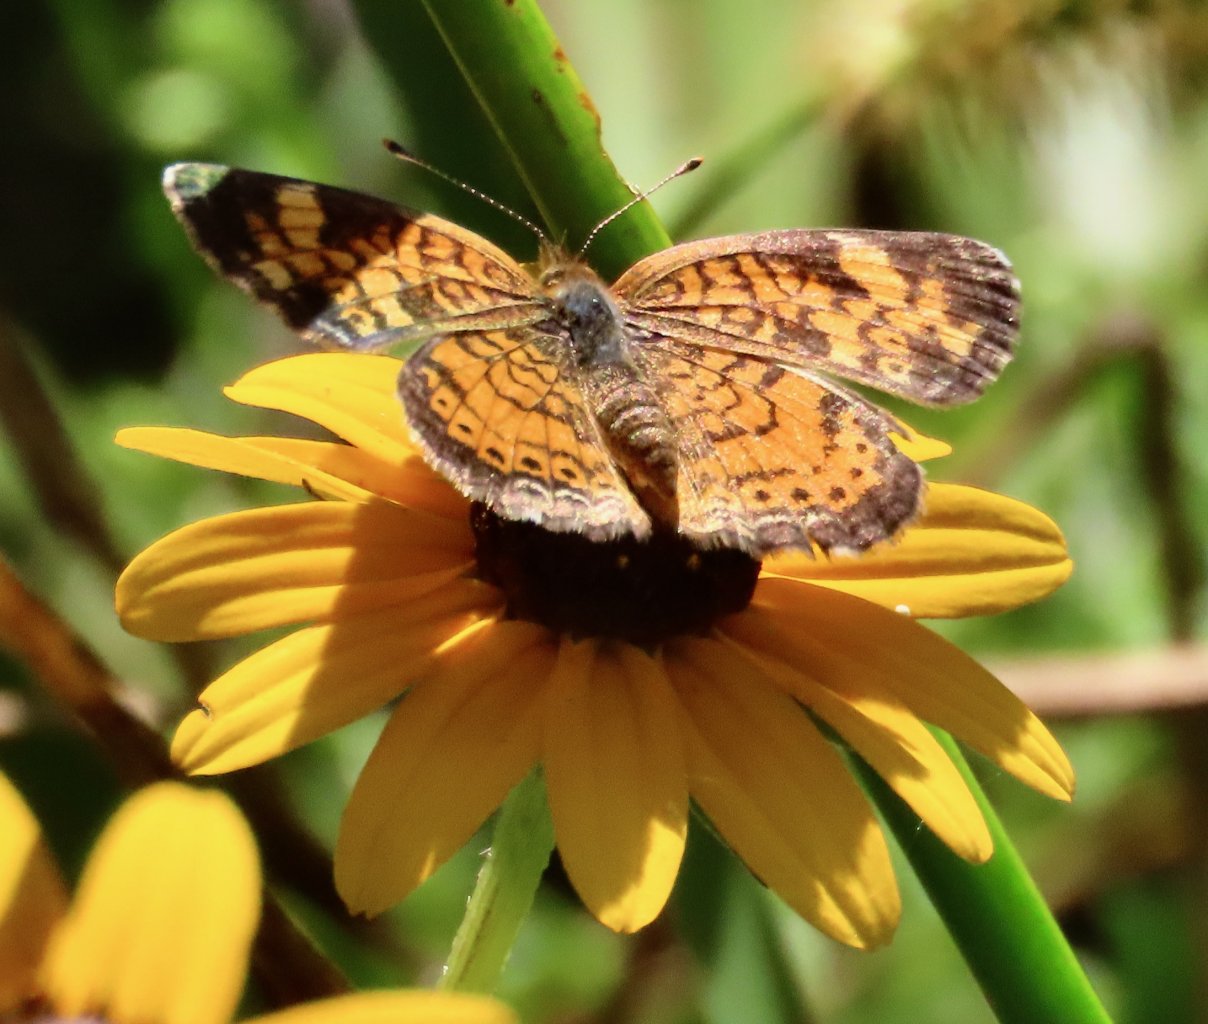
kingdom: Animalia
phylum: Arthropoda
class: Insecta
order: Lepidoptera
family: Nymphalidae
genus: Phyciodes
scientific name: Phyciodes tharos
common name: Pearl Crescent
